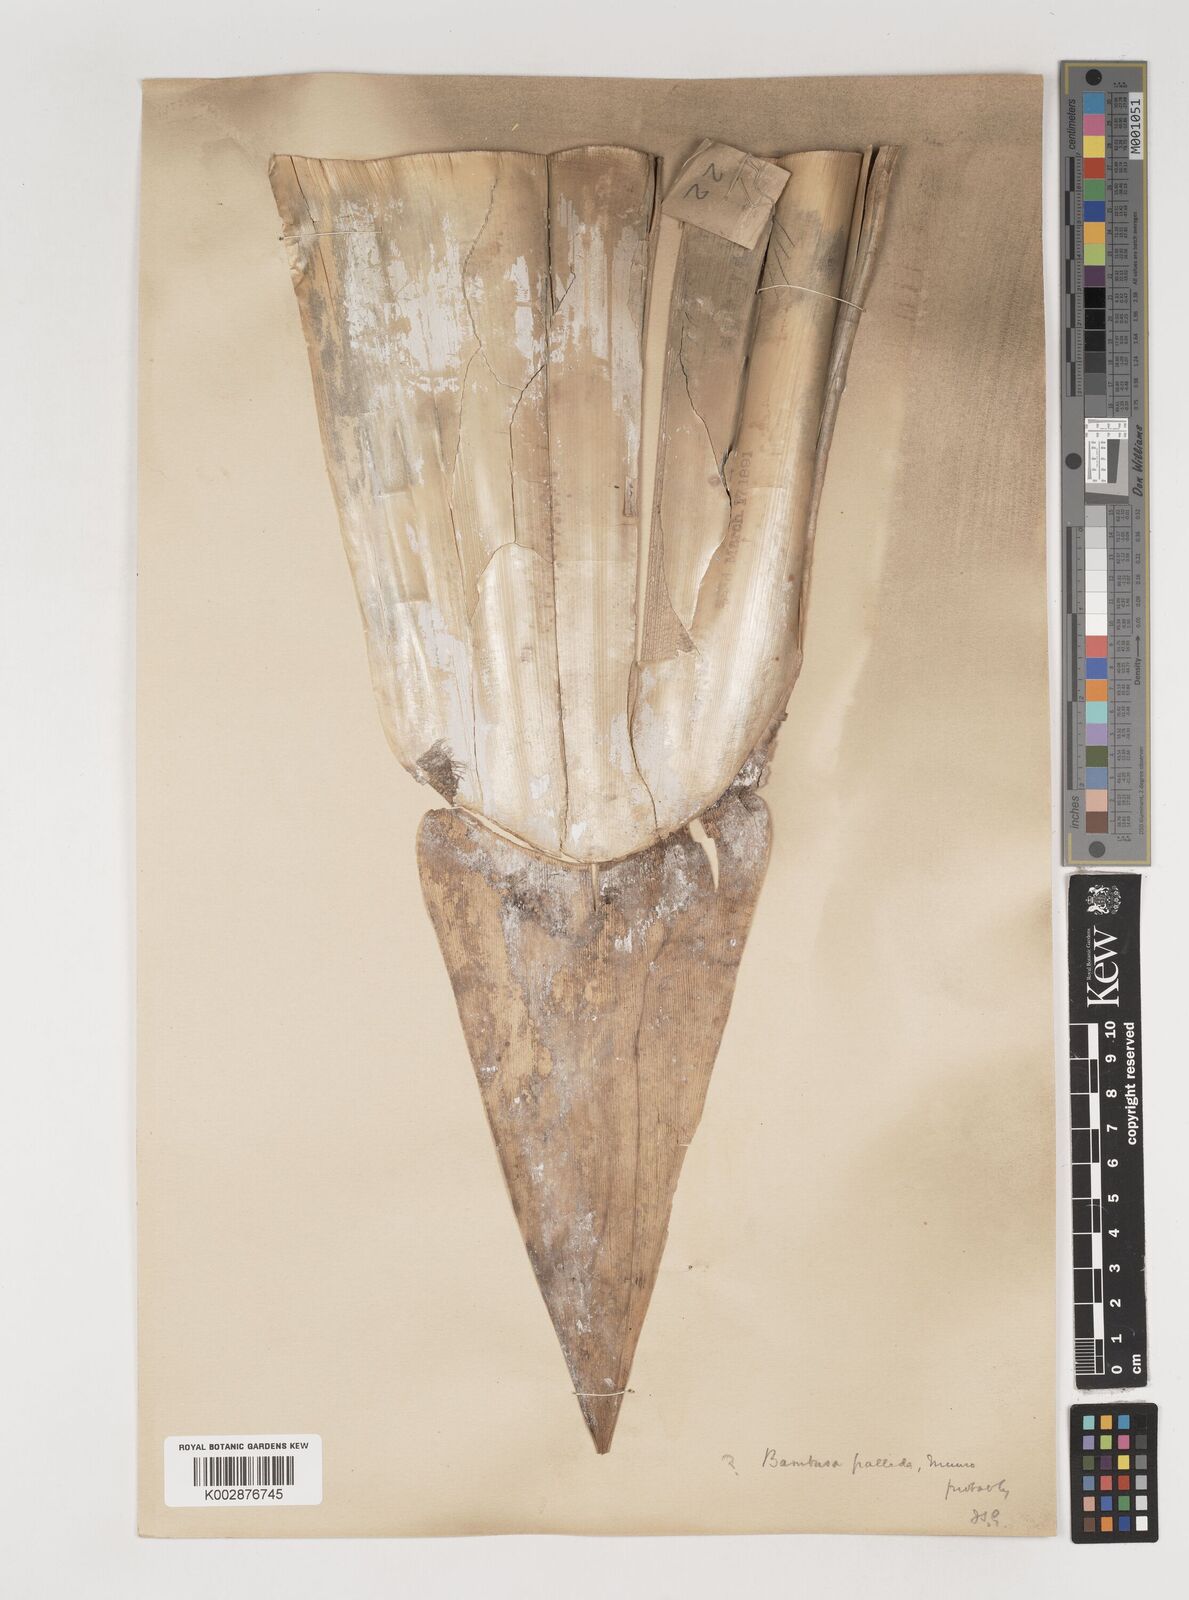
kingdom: Plantae
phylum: Tracheophyta
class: Liliopsida
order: Poales
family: Poaceae
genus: Bambusa
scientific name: Bambusa pallida
